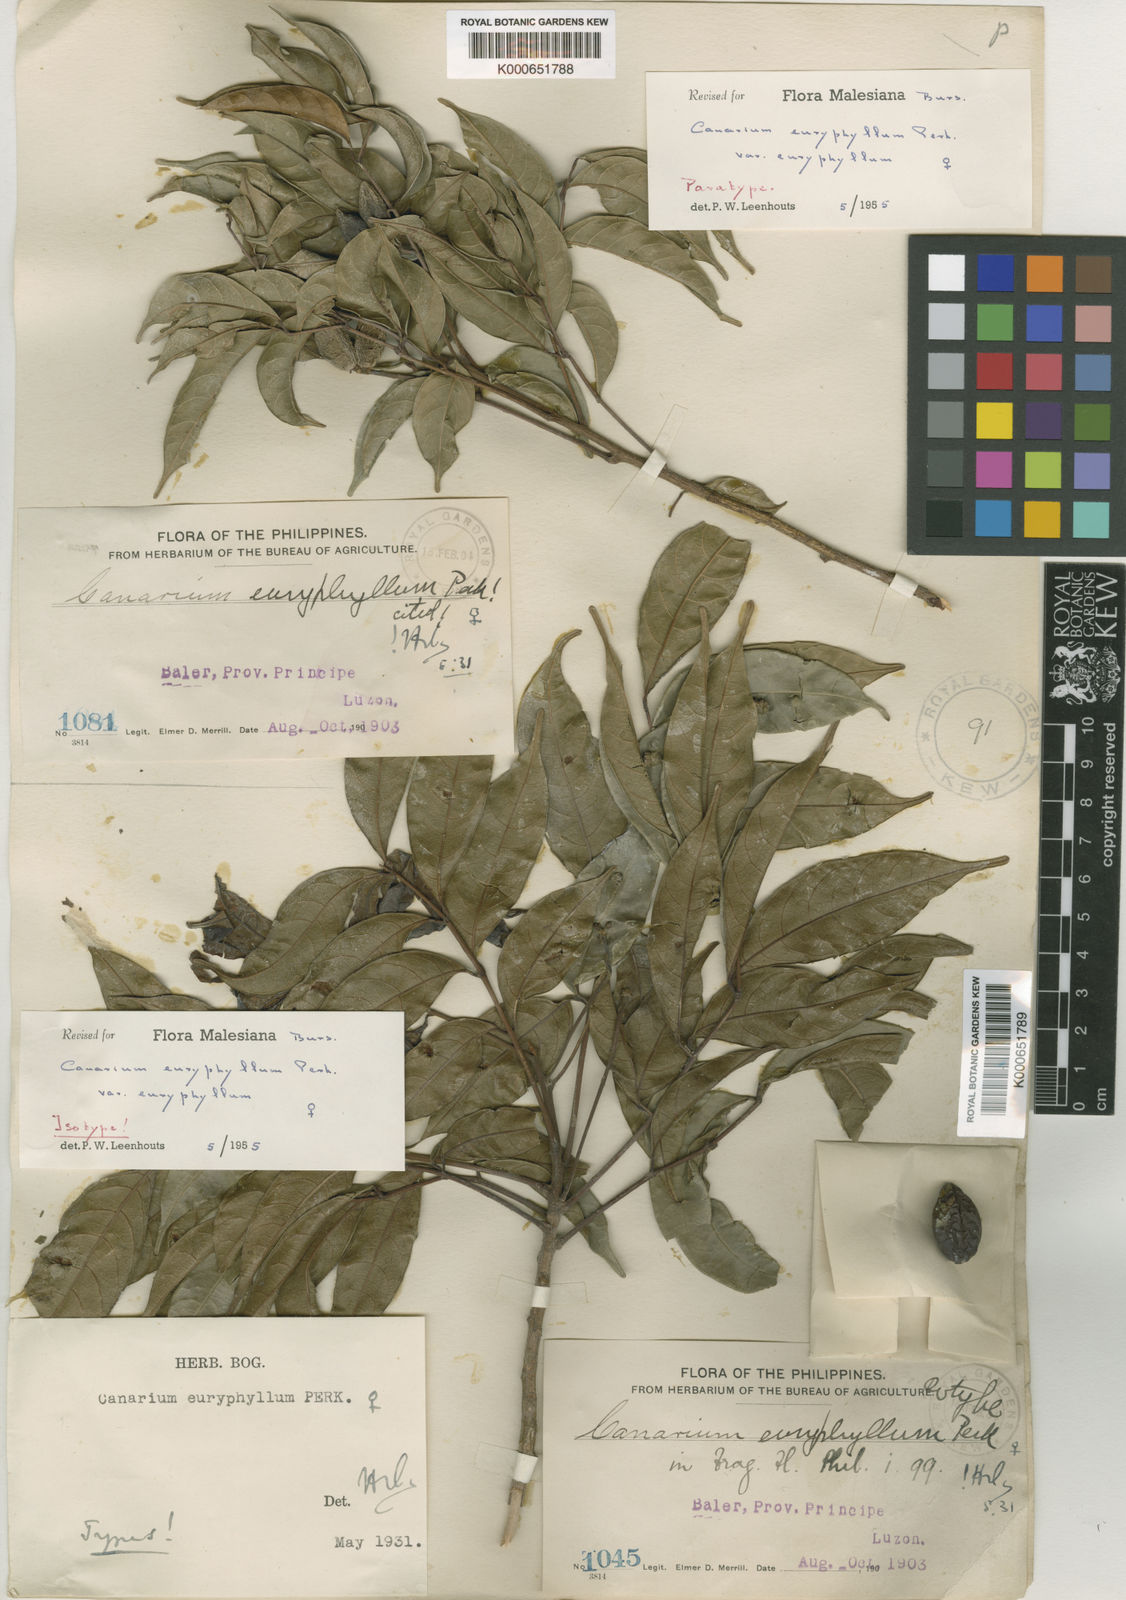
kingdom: Plantae
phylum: Tracheophyta
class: Magnoliopsida
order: Sapindales
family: Burseraceae
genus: Canarium
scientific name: Canarium euryphyllum
